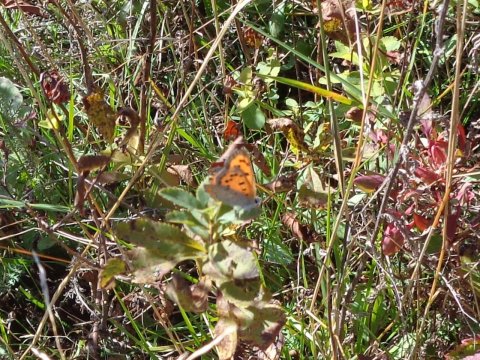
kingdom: Animalia
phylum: Arthropoda
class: Insecta
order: Lepidoptera
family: Lycaenidae
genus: Lycaena
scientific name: Lycaena phlaeas
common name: American Copper
